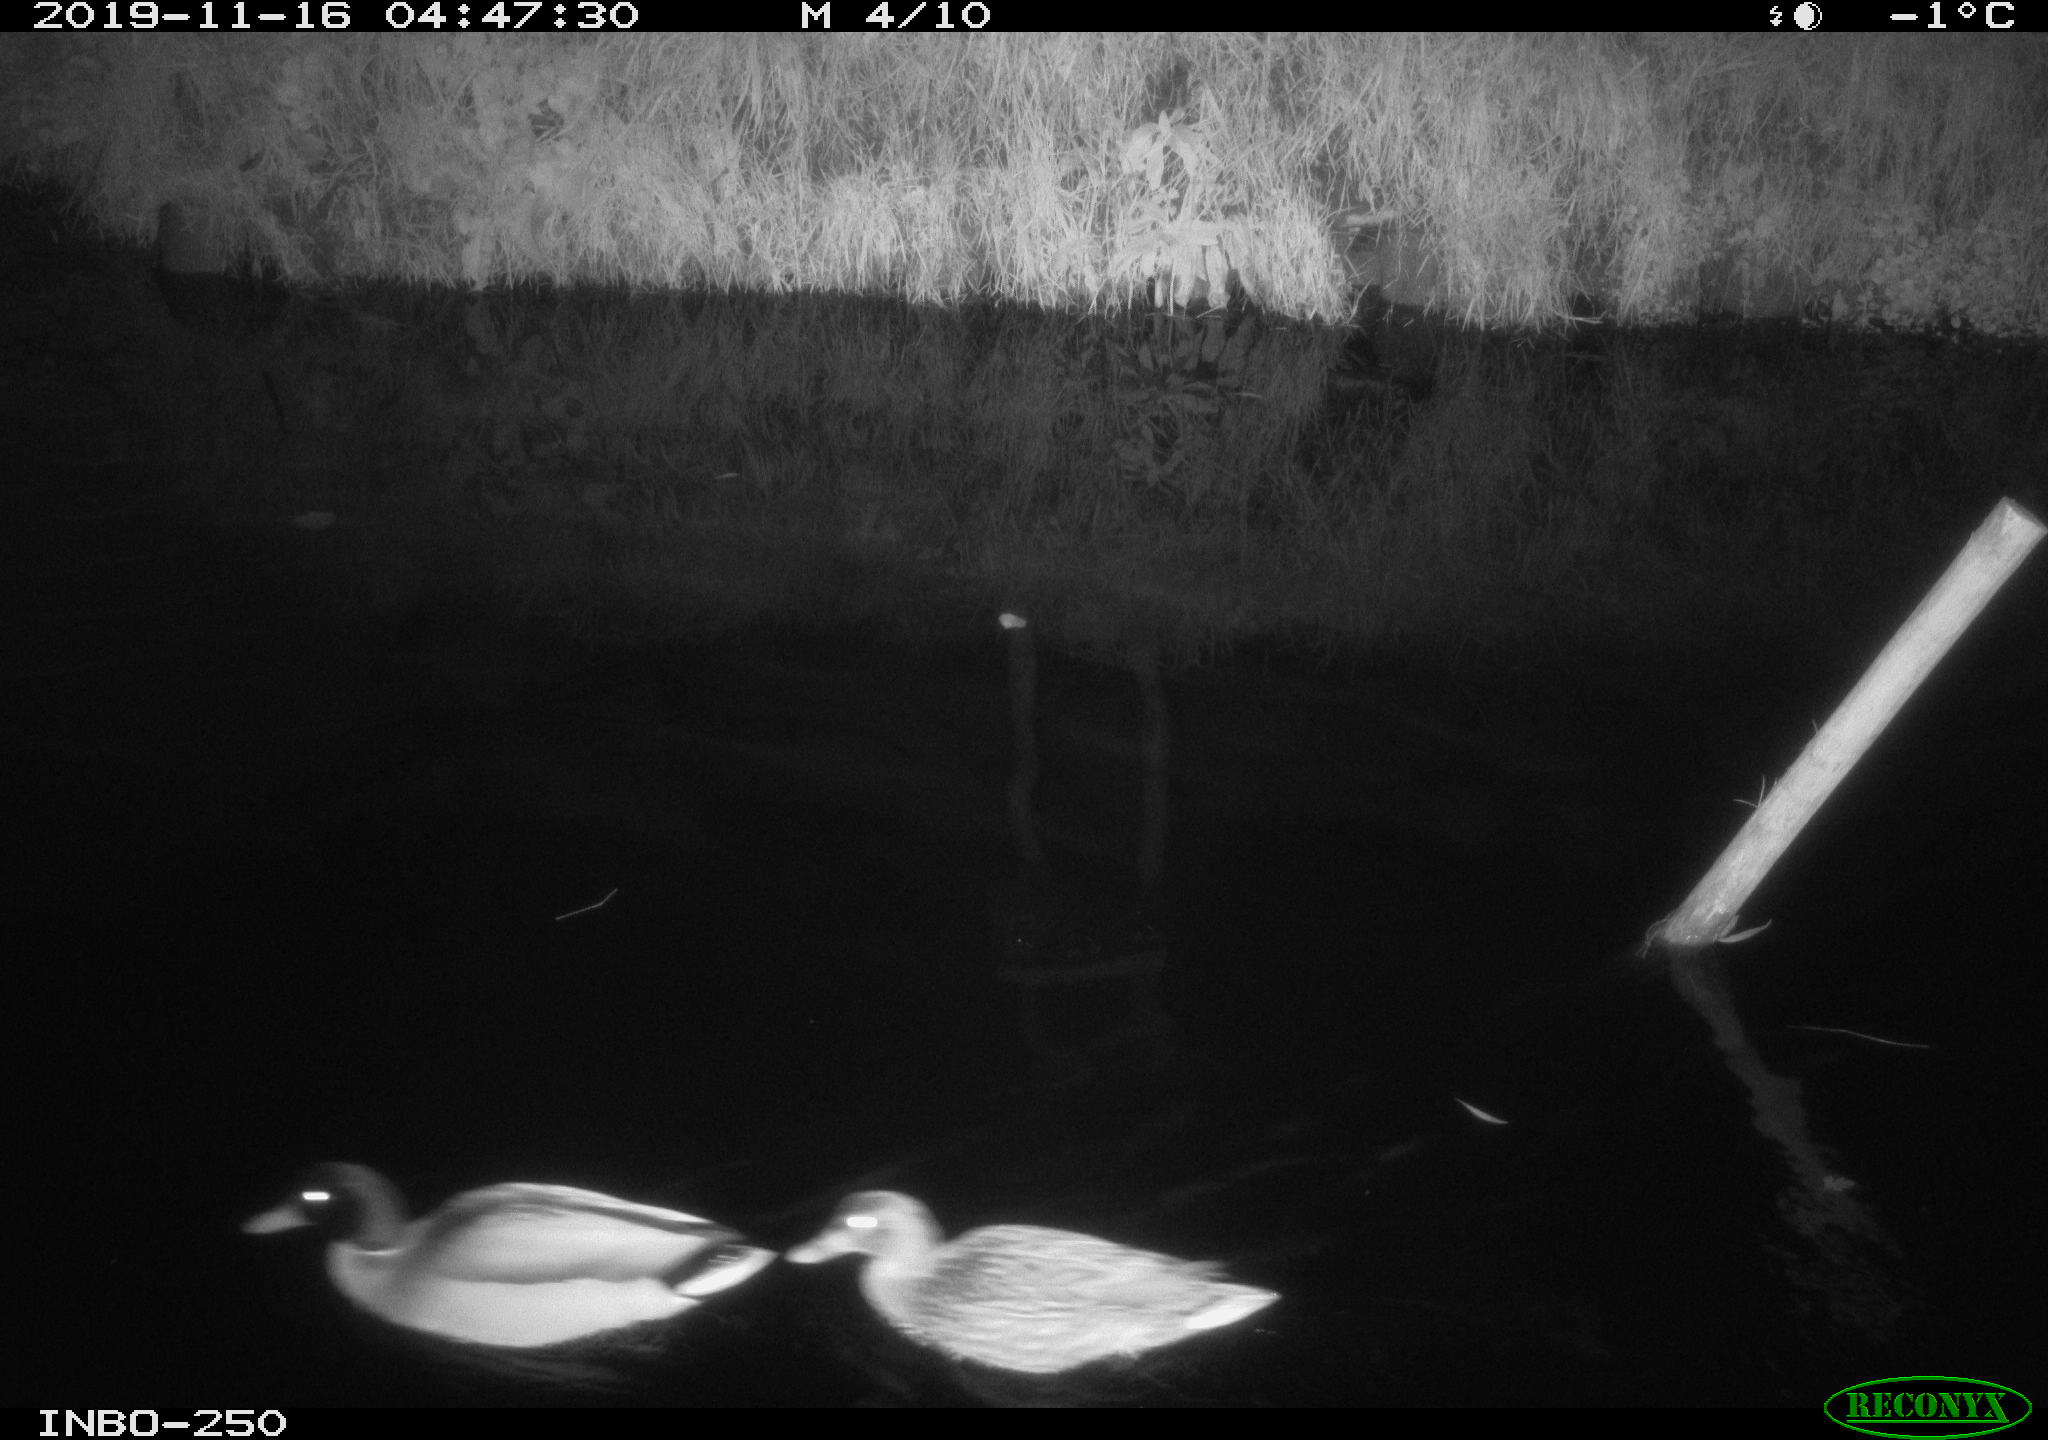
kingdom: Animalia
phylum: Chordata
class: Aves
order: Anseriformes
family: Anatidae
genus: Anas
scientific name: Anas platyrhynchos
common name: Mallard
